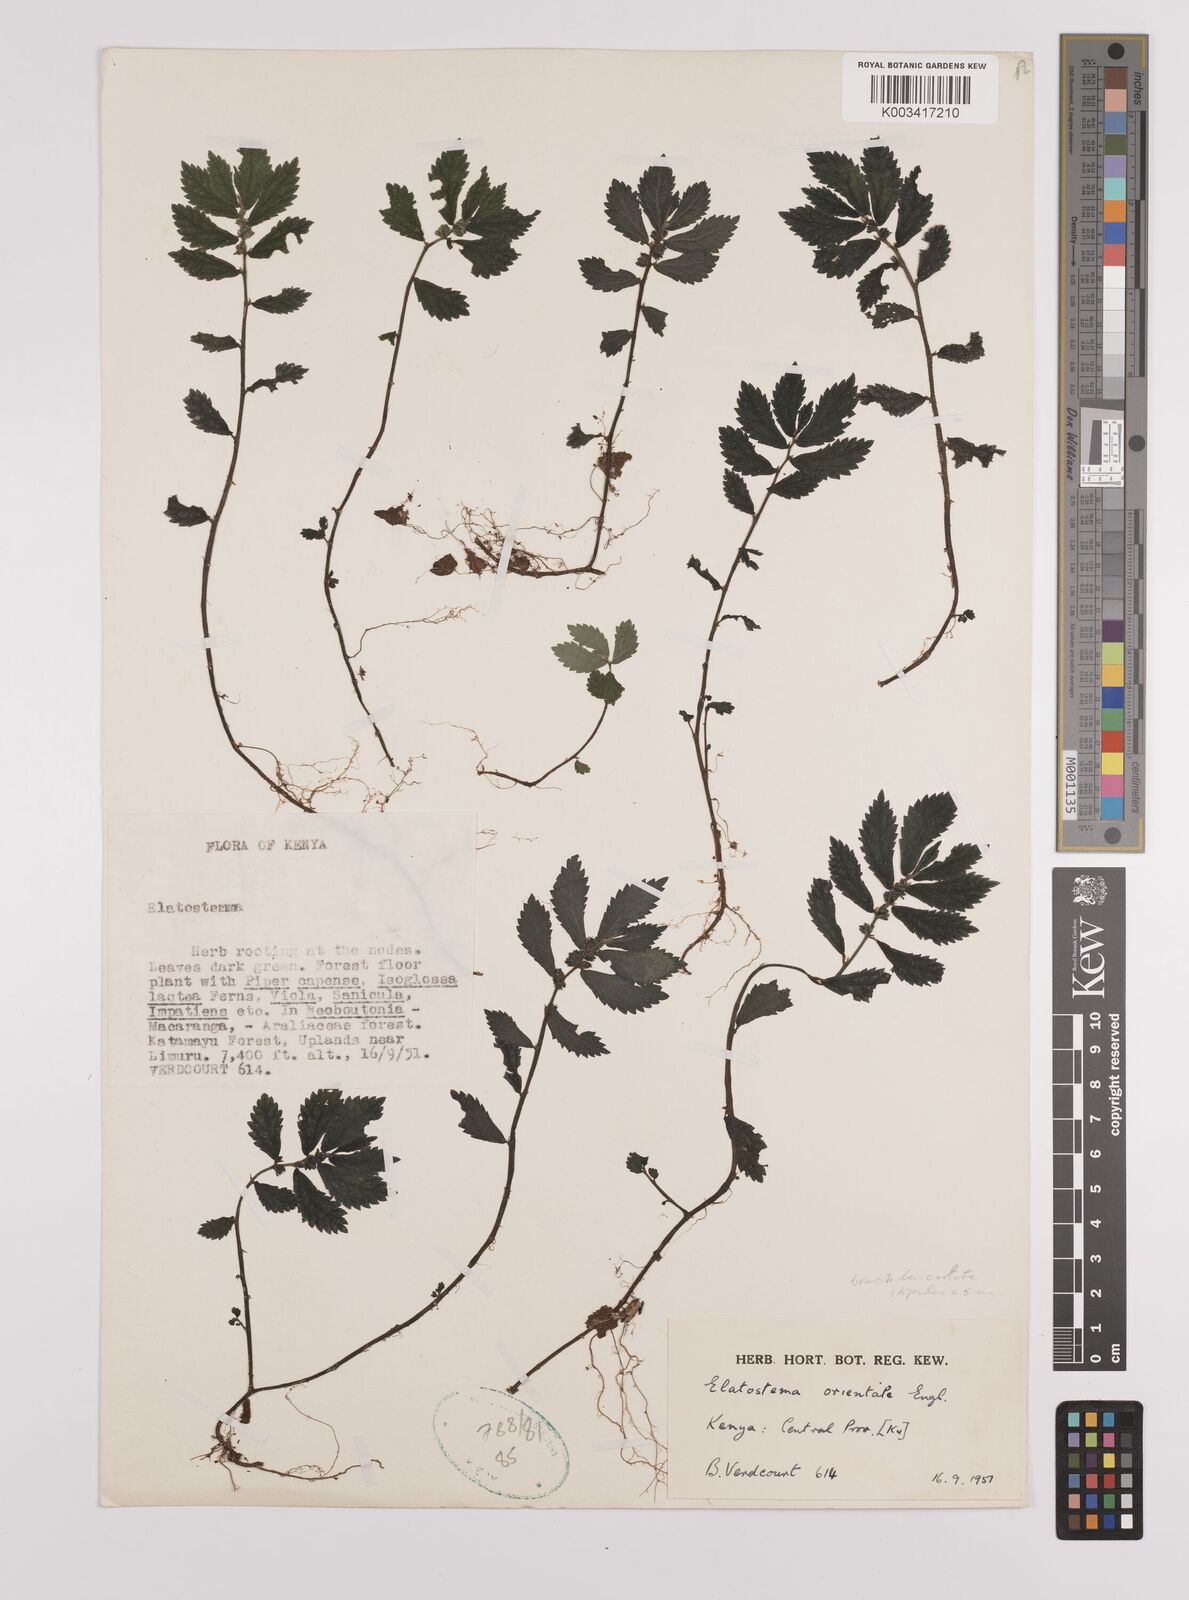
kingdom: Plantae
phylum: Tracheophyta
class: Magnoliopsida
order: Rosales
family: Urticaceae
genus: Elatostema
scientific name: Elatostema monticola
